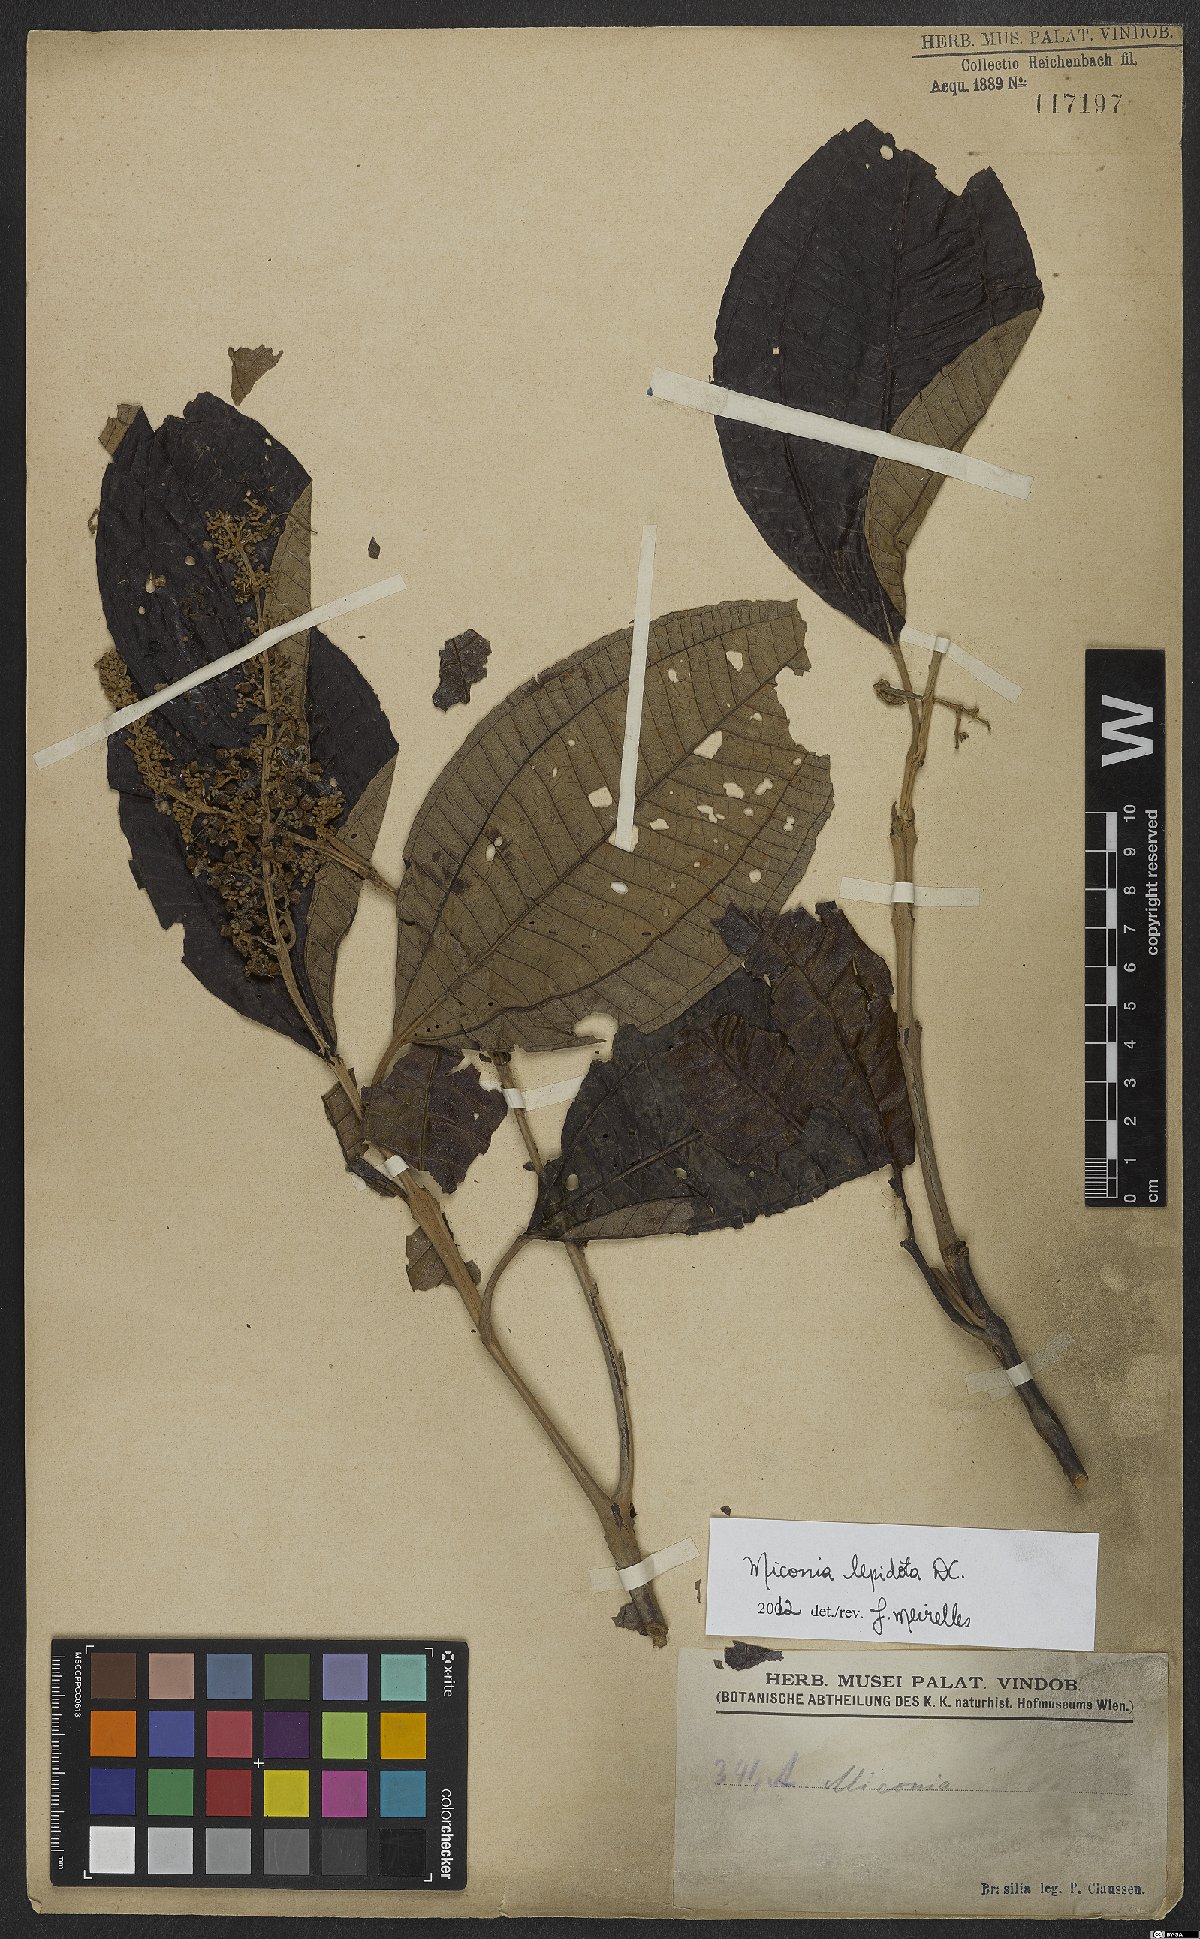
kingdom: Plantae
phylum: Tracheophyta
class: Magnoliopsida
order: Myrtales
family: Melastomataceae
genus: Miconia
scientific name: Miconia lepidota
